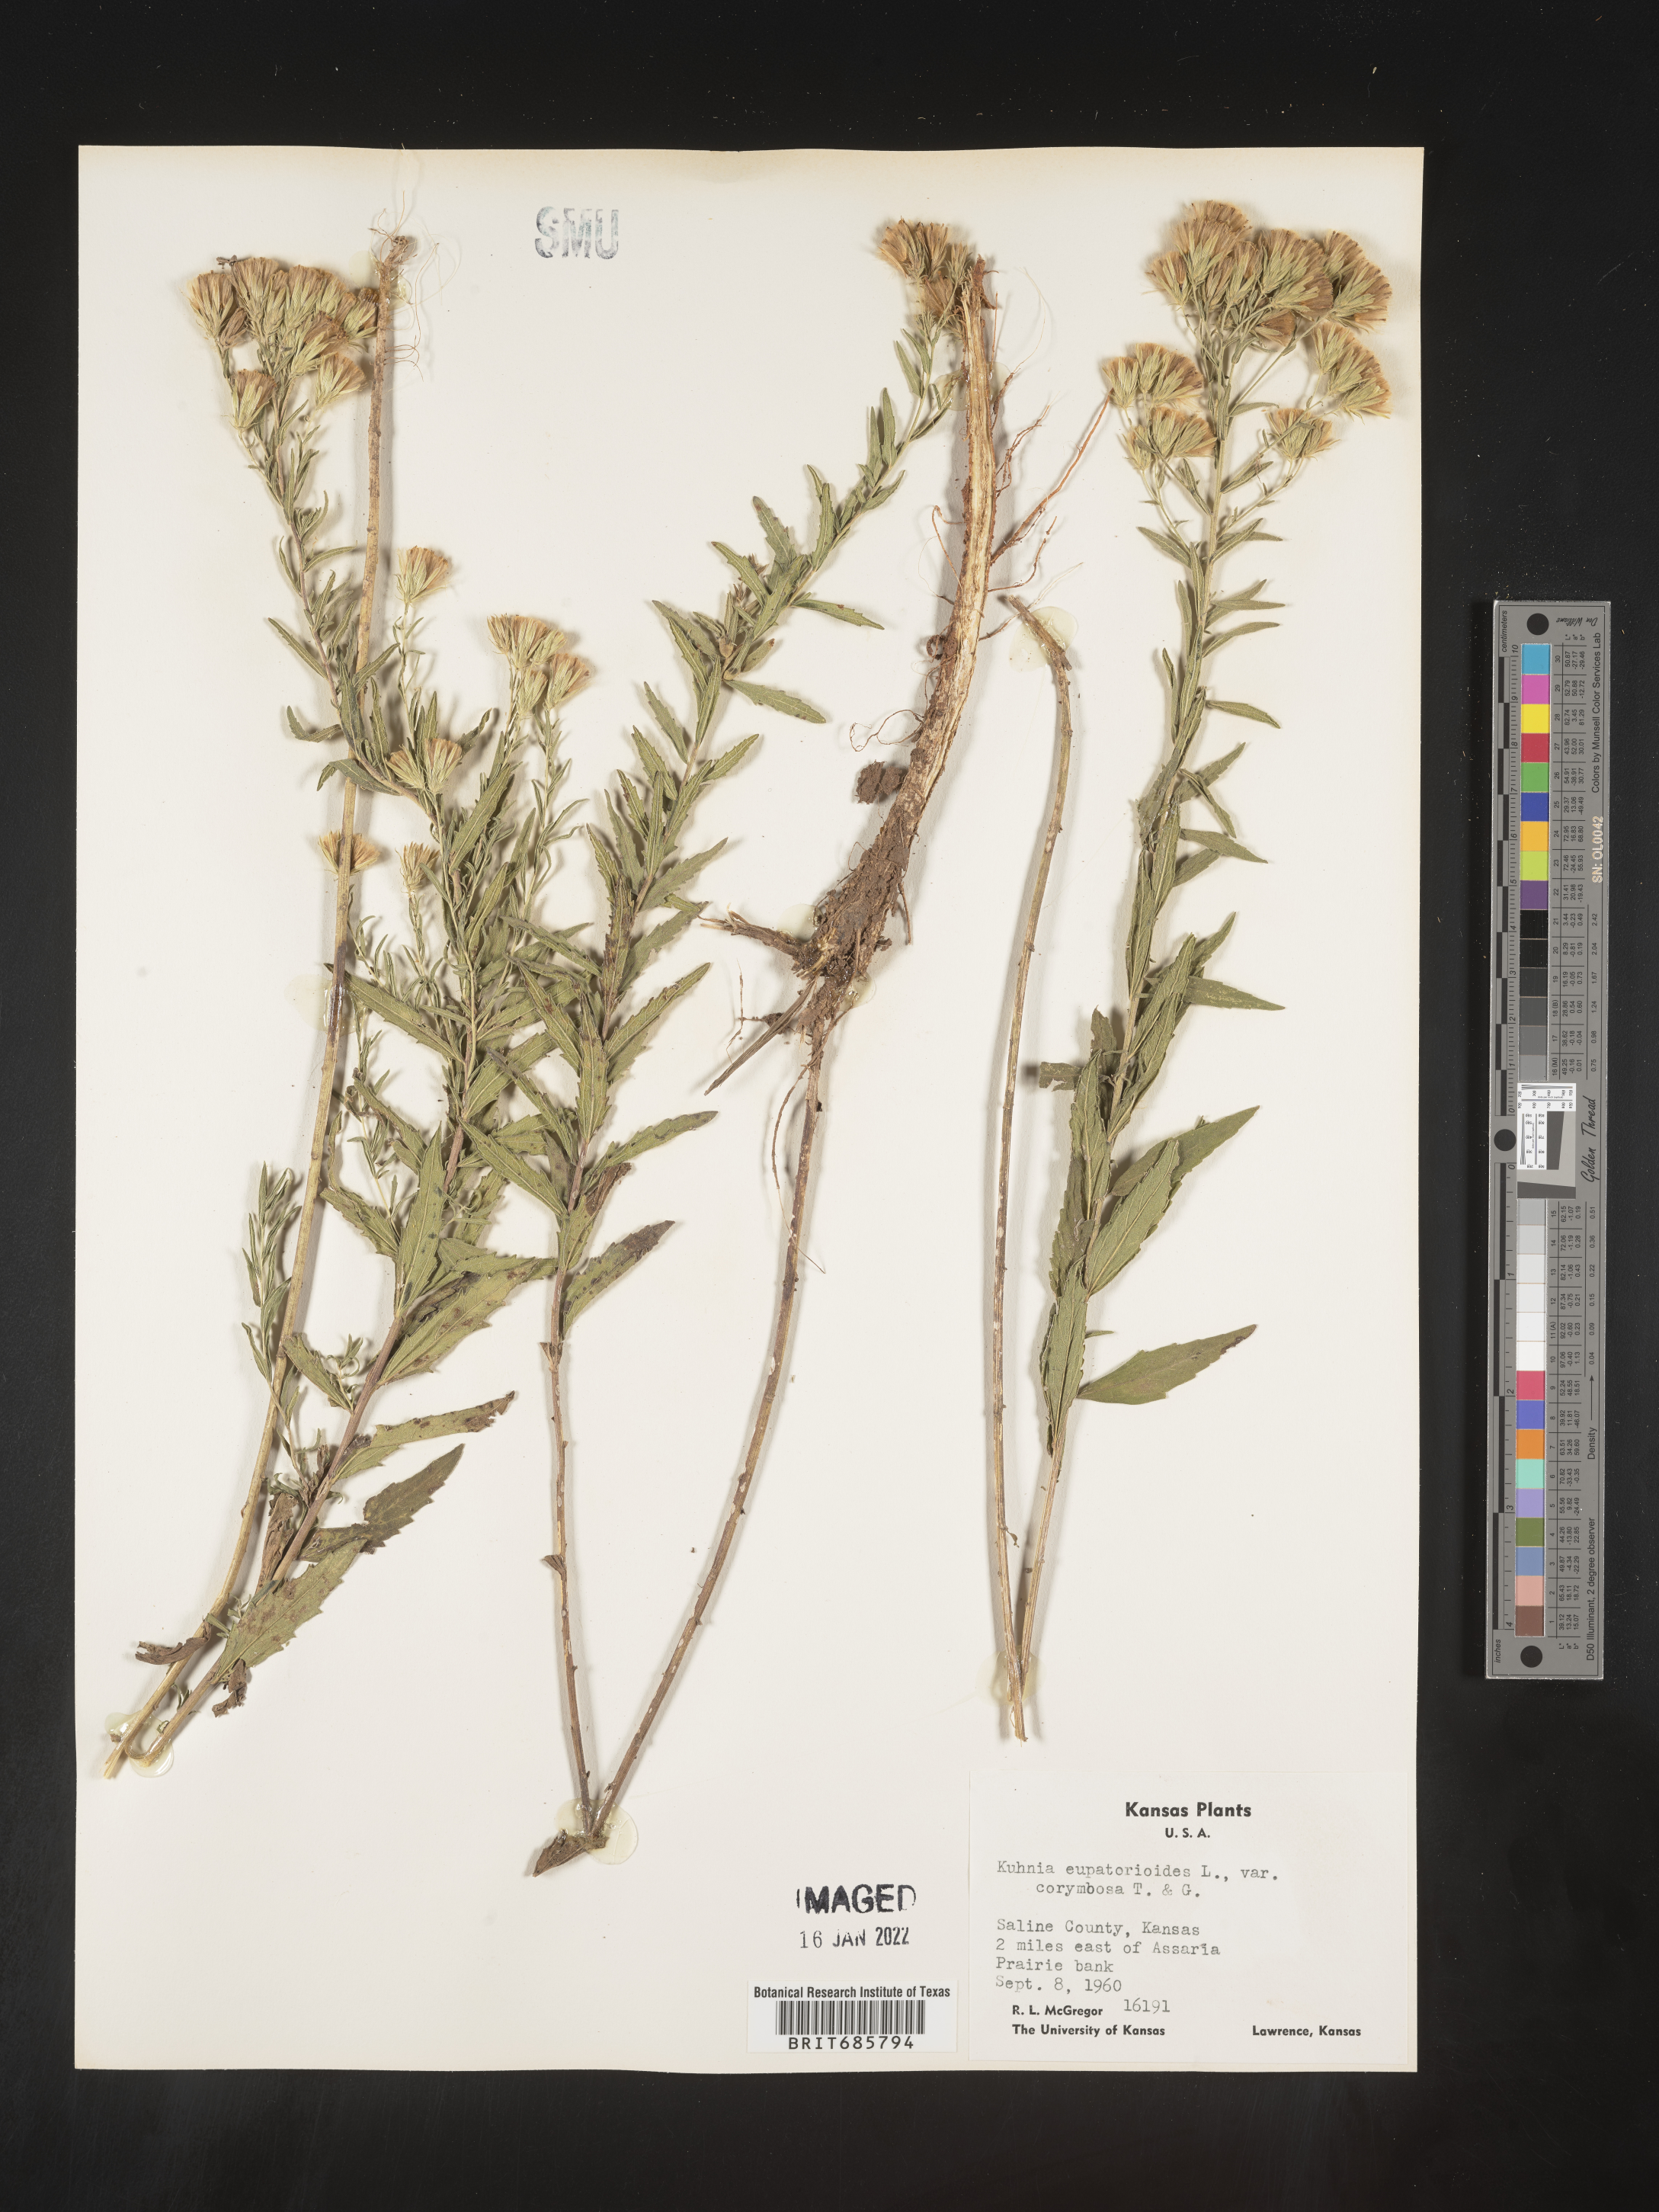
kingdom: Plantae
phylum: Tracheophyta
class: Magnoliopsida
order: Asterales
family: Asteraceae
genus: Brickellia
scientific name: Brickellia eupatorioides
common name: False boneset
